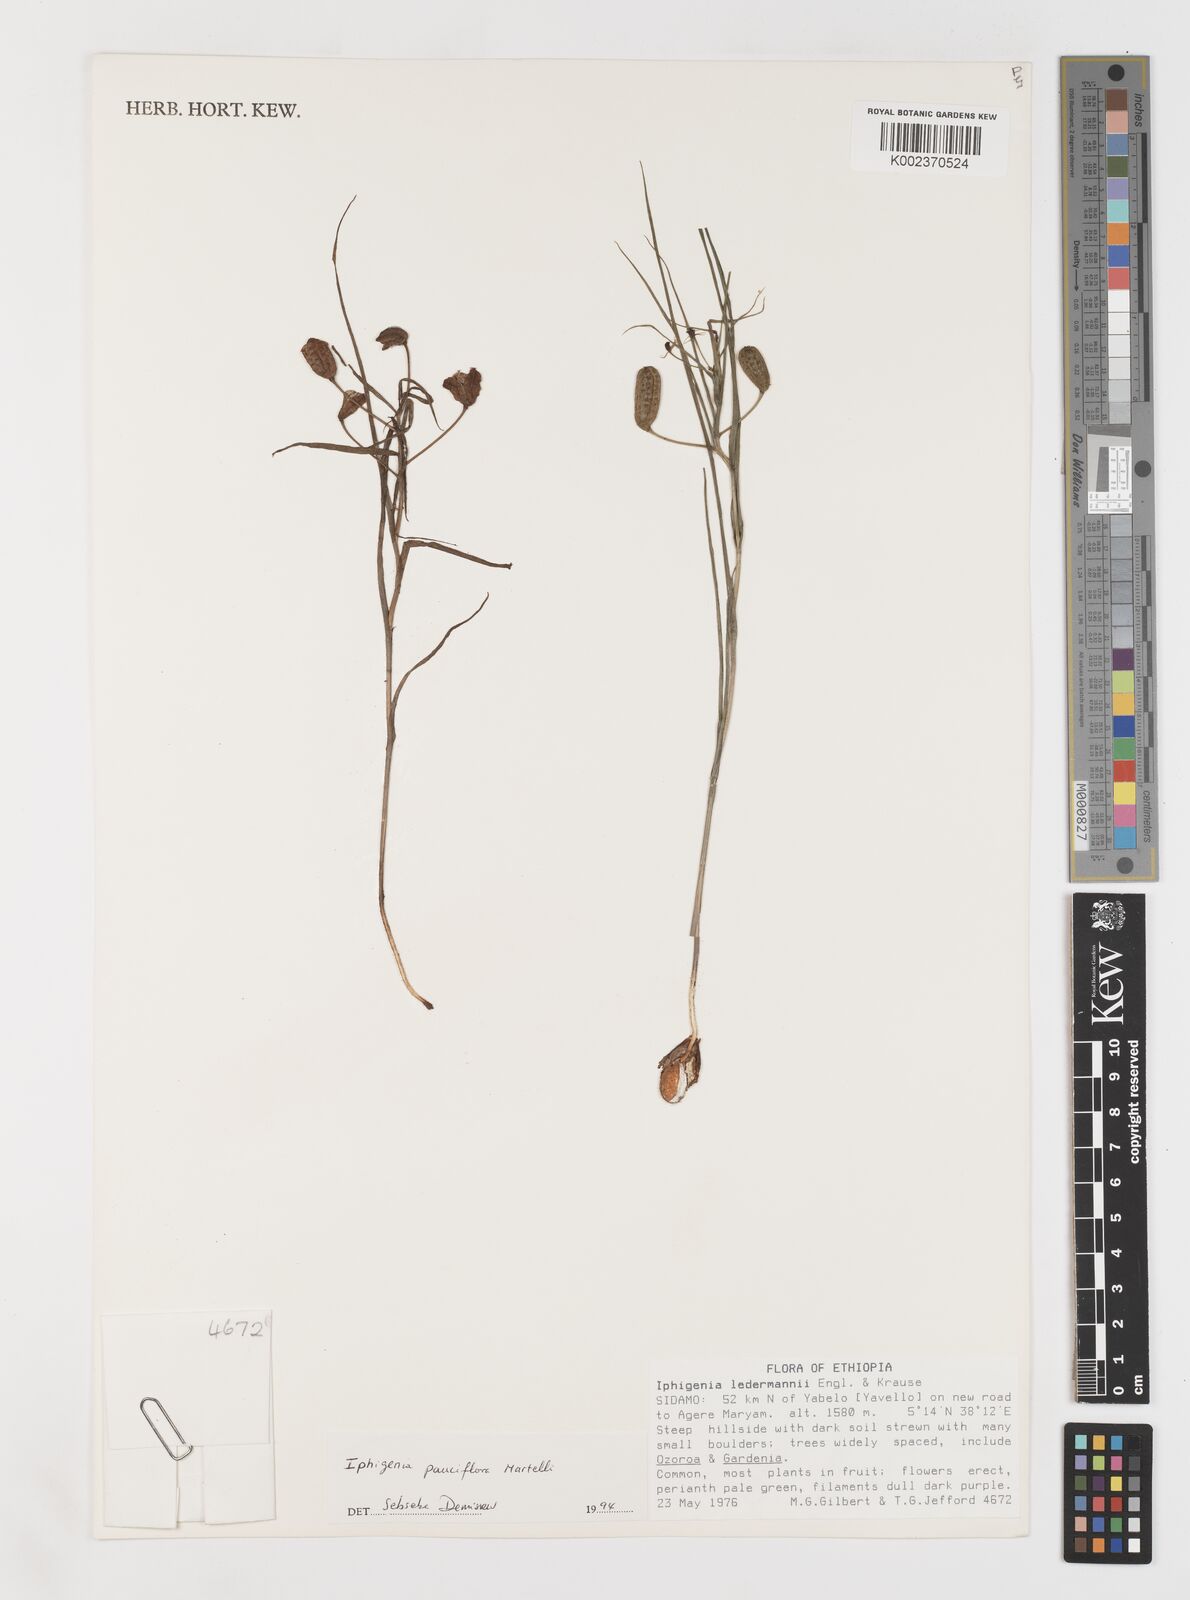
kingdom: Plantae
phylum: Tracheophyta
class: Liliopsida
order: Liliales
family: Colchicaceae
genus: Iphigenia
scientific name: Iphigenia pauciflora
